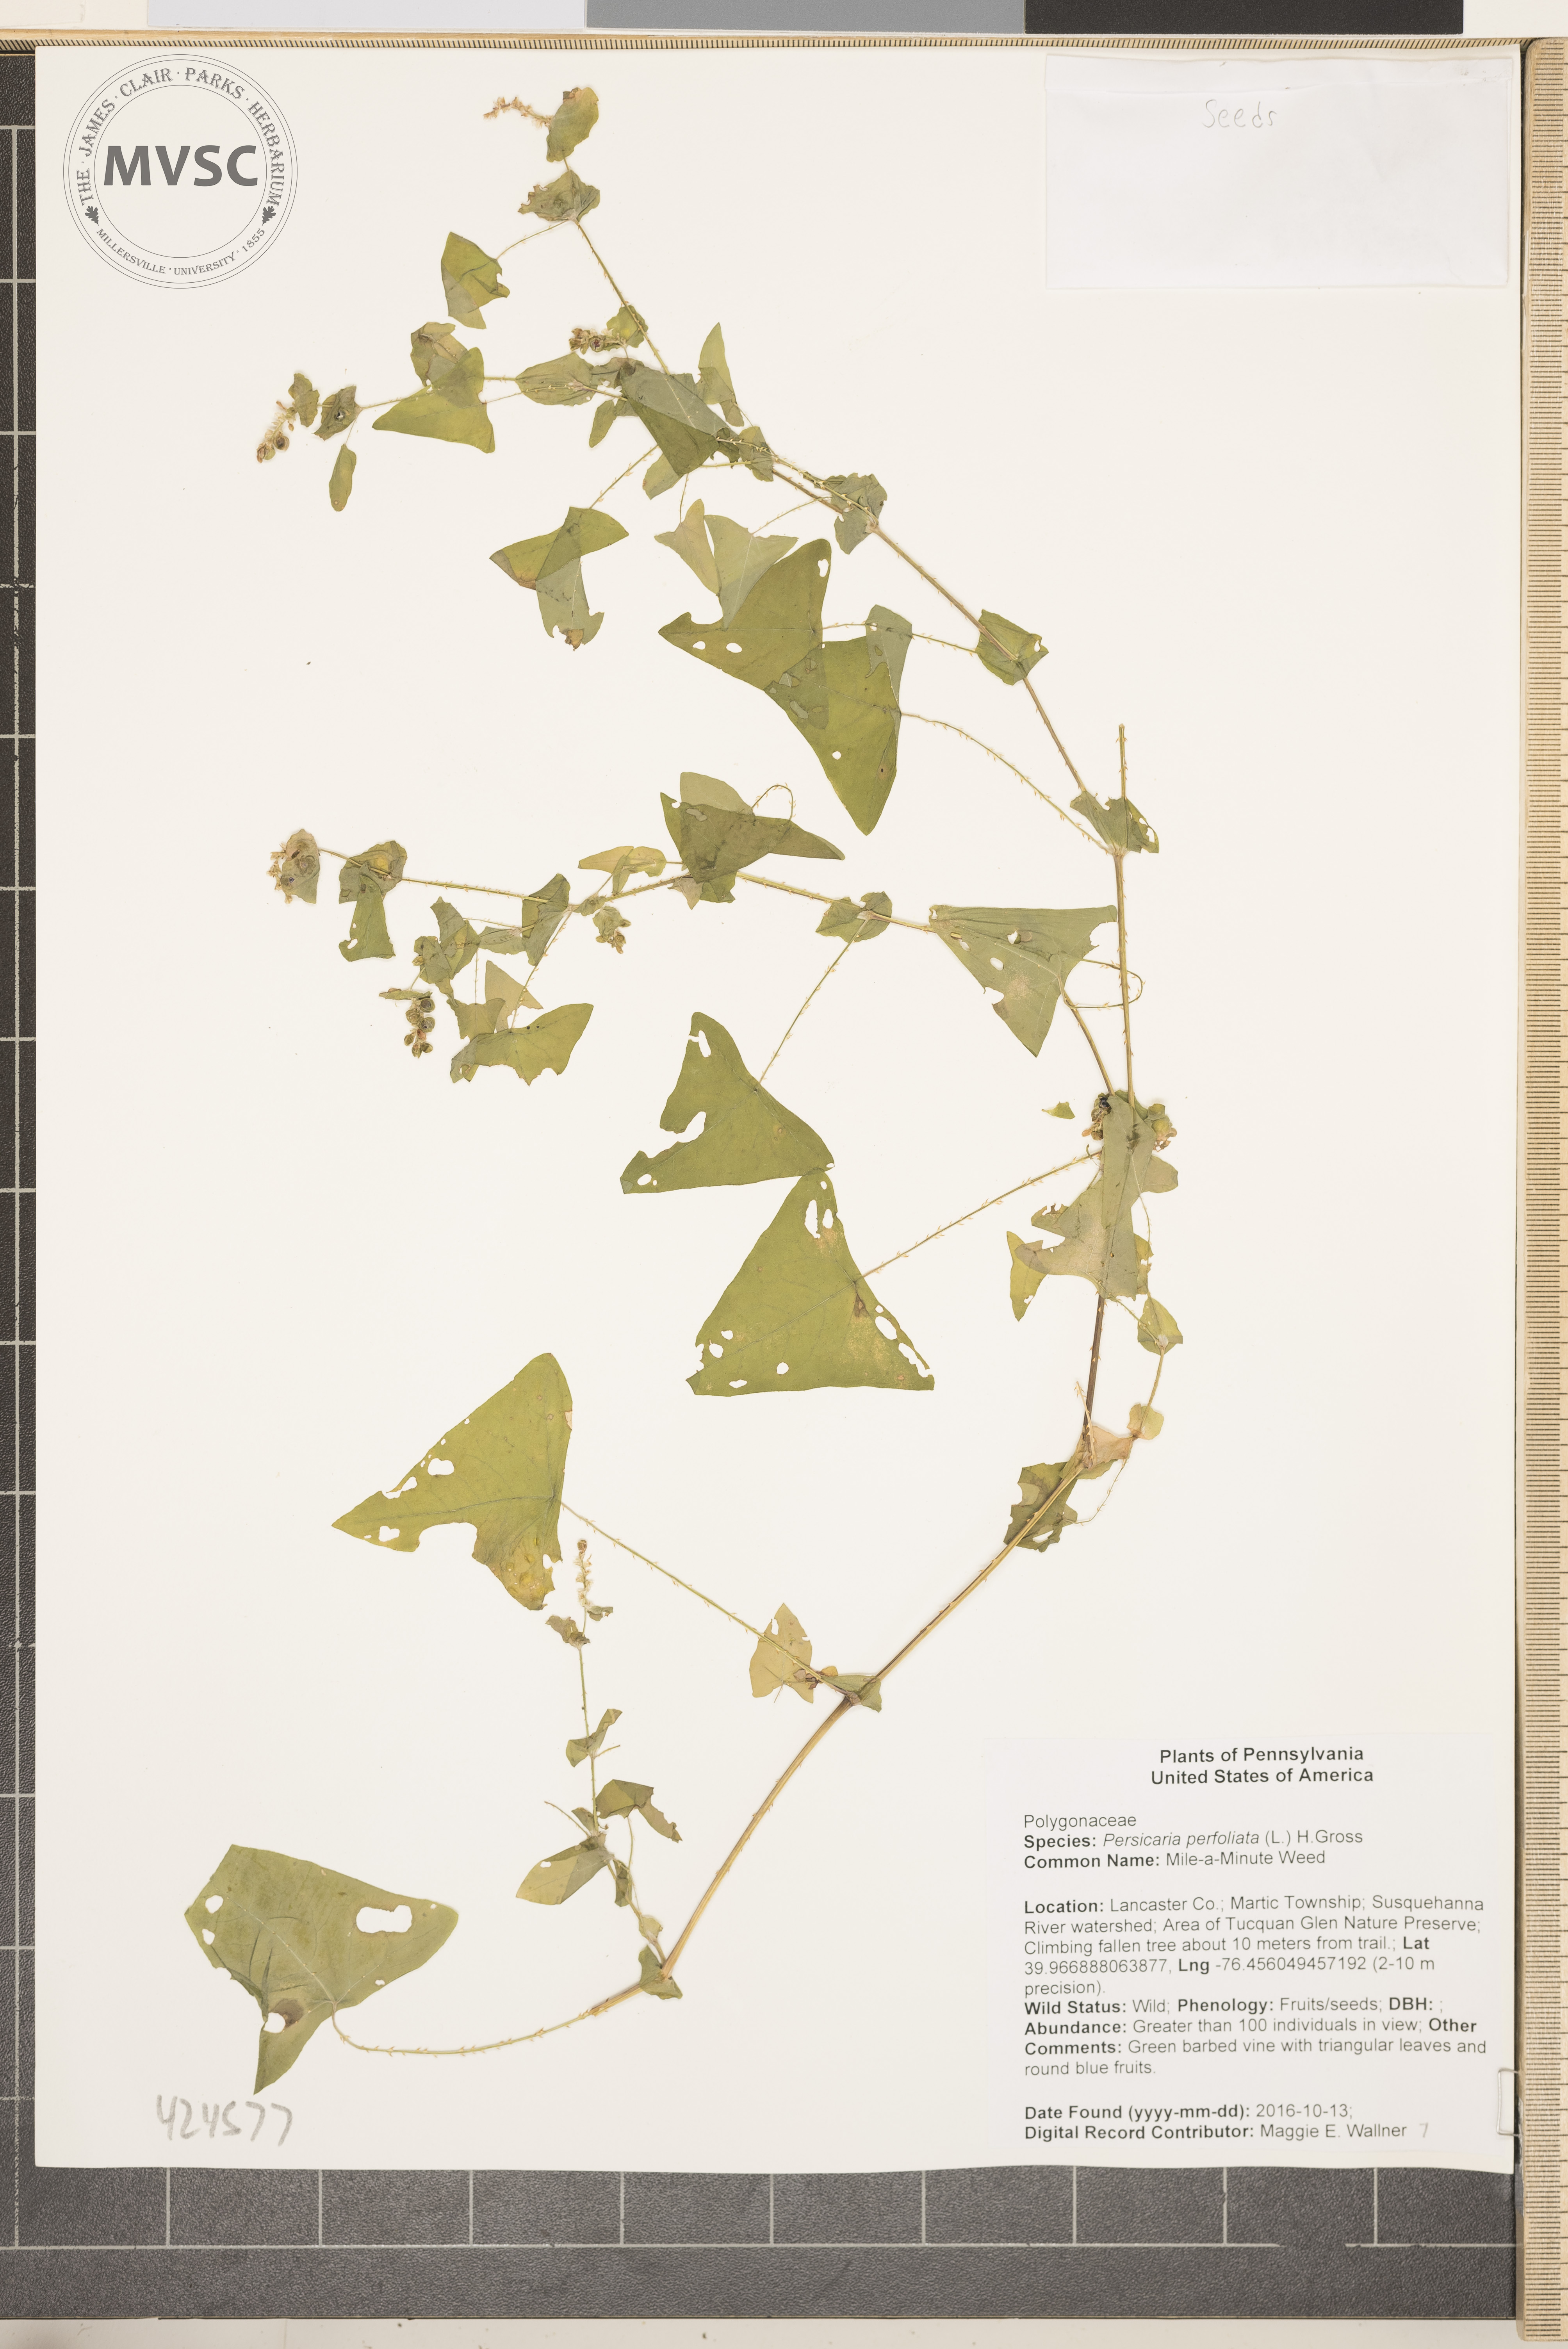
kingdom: Plantae
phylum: Tracheophyta
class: Magnoliopsida
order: Caryophyllales
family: Polygonaceae
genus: Persicaria
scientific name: Persicaria perfoliata
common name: Mile-a-Minute Weed
